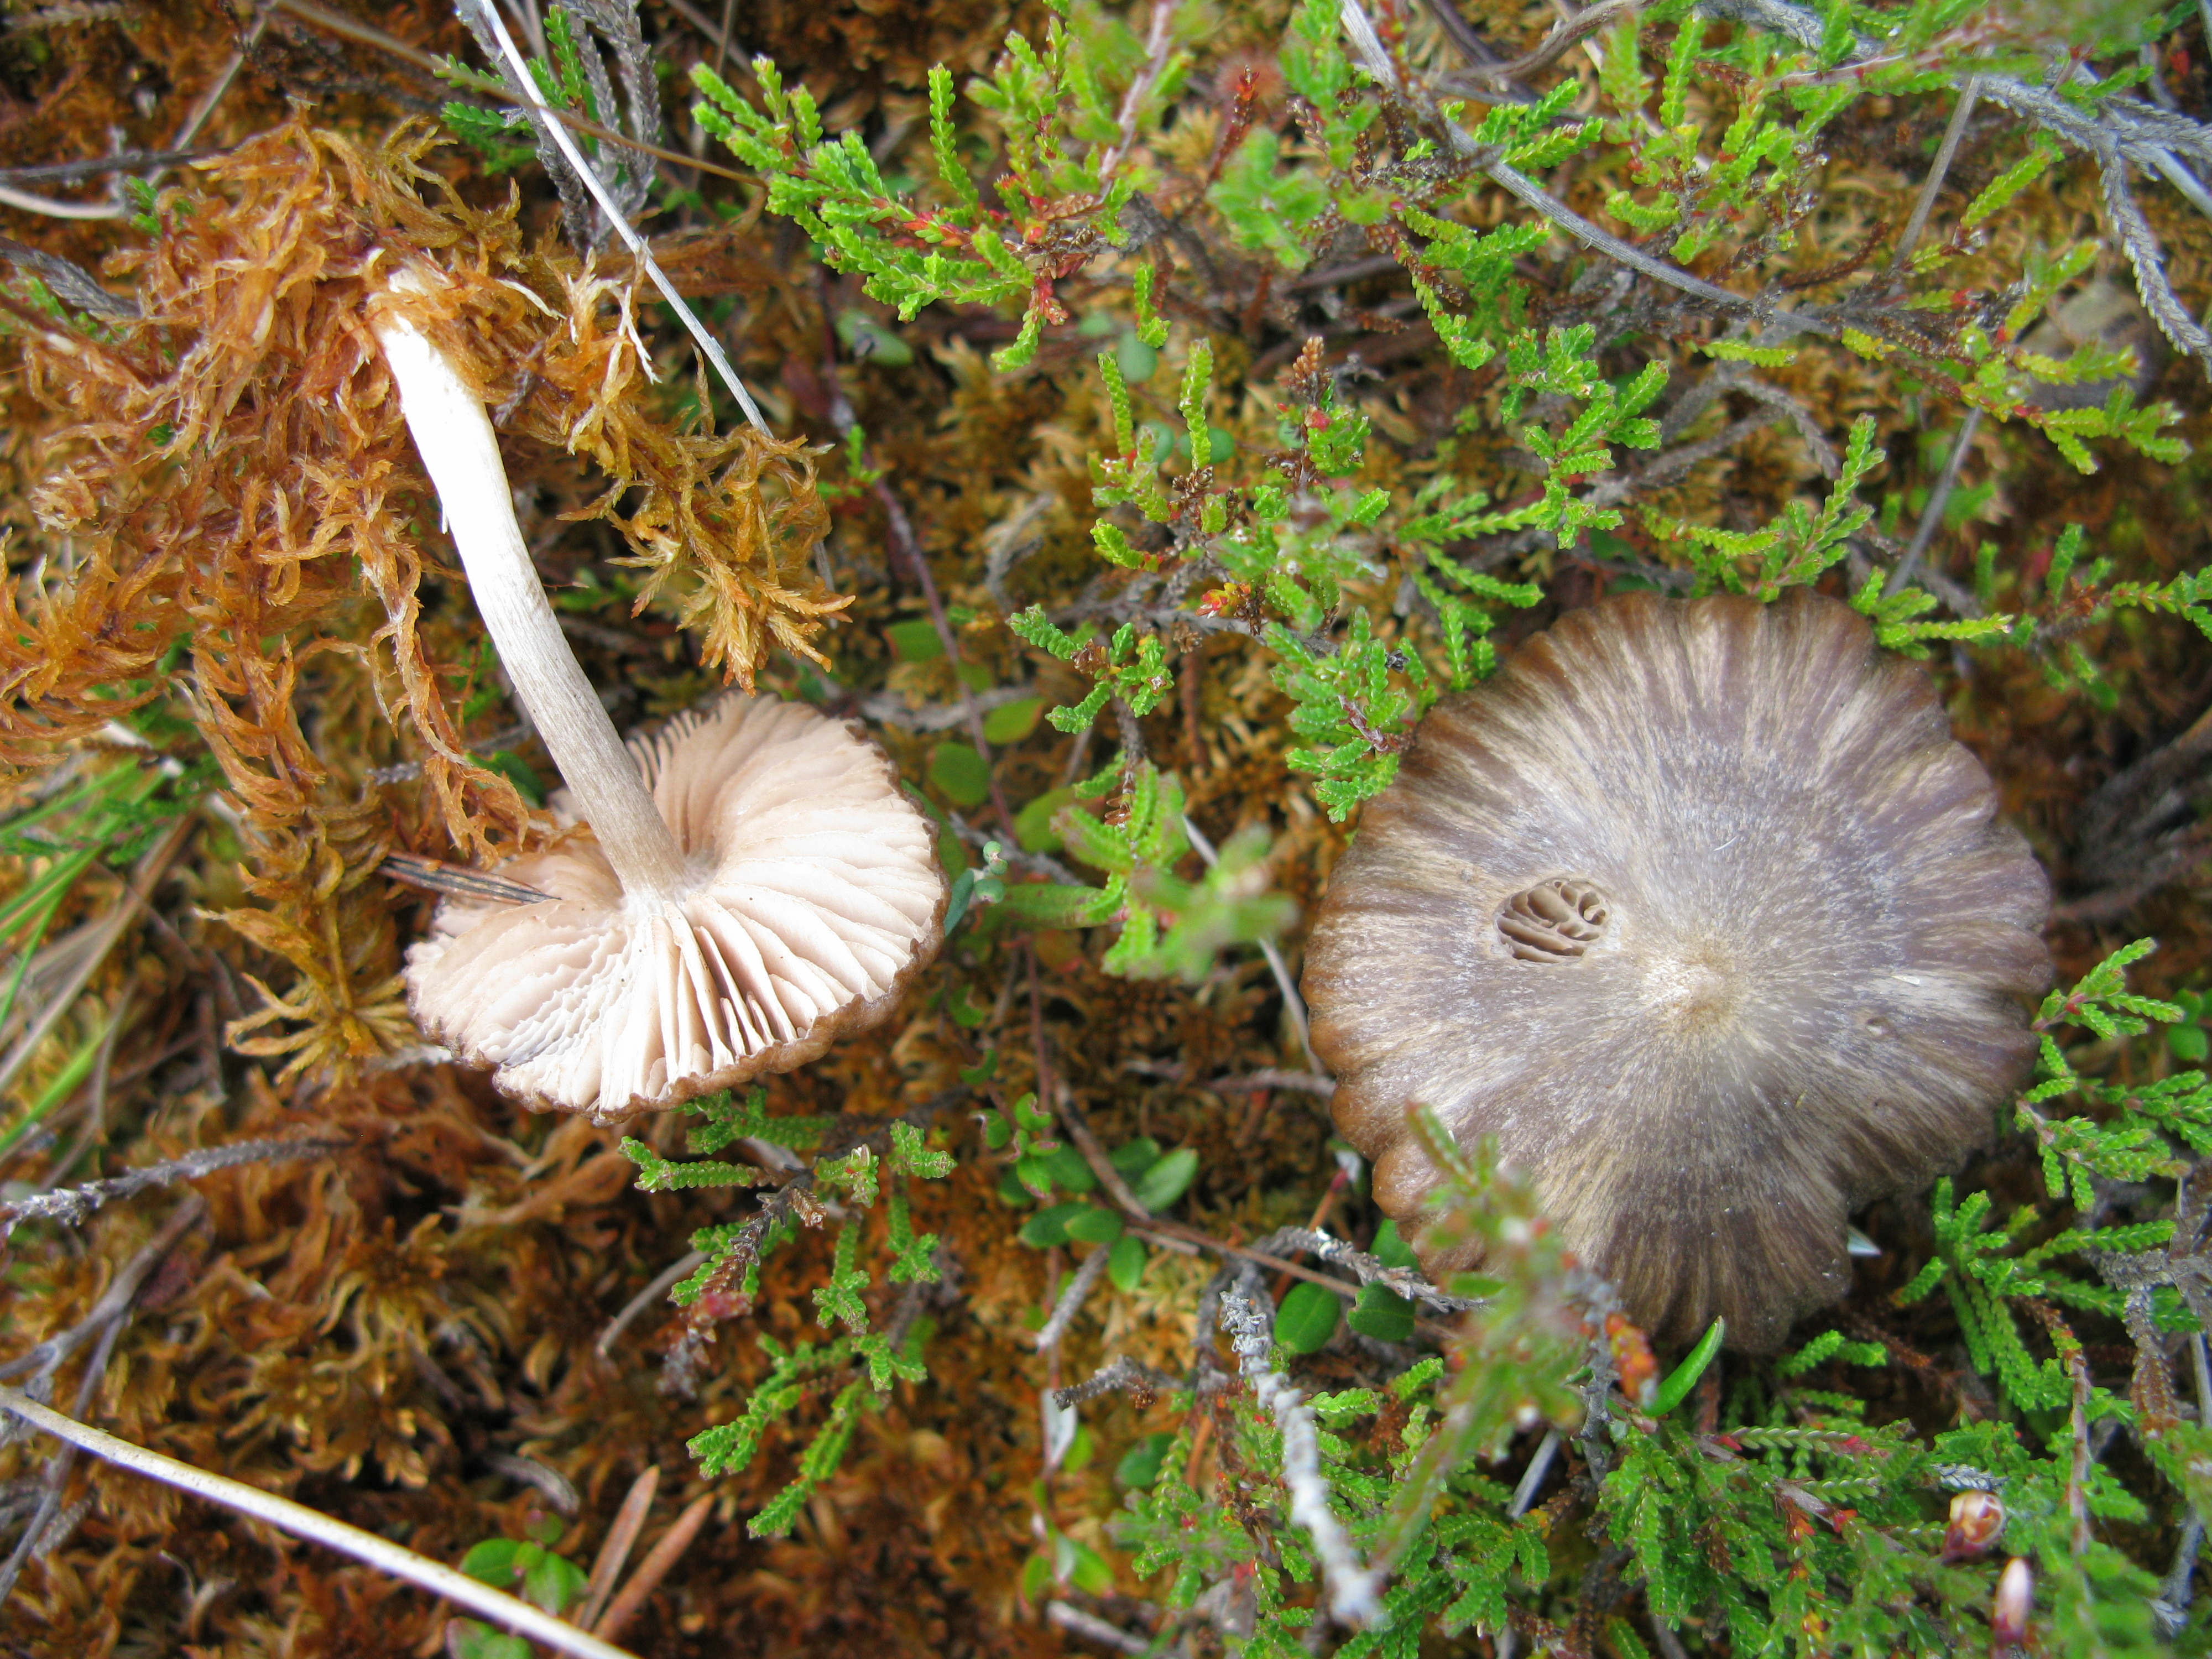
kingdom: Fungi
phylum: Basidiomycota
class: Agaricomycetes
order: Agaricales
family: Entolomataceae
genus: Entoloma
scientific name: Entoloma
